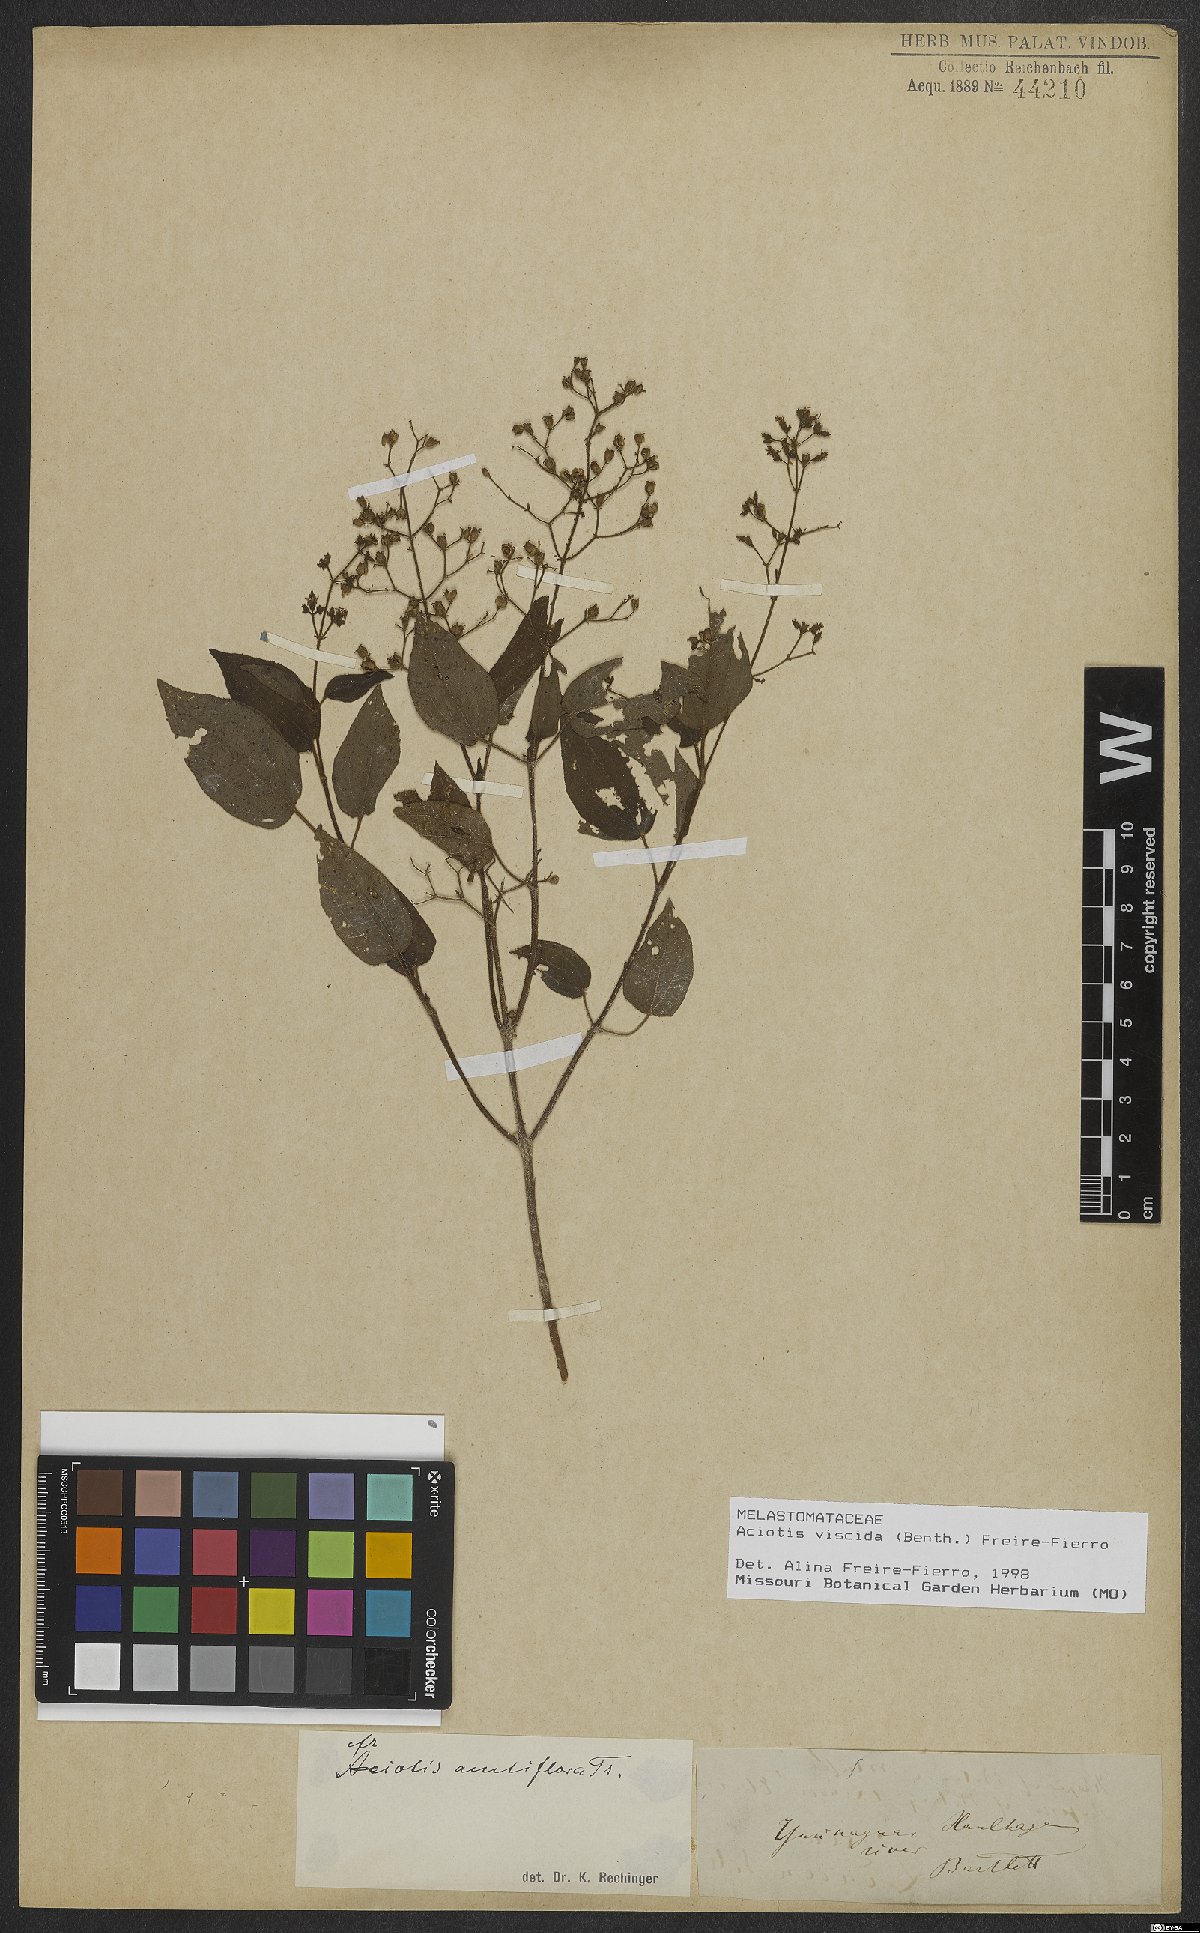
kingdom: Plantae
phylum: Tracheophyta
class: Magnoliopsida
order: Myrtales
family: Melastomataceae
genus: Aciotis
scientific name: Aciotis viscida
